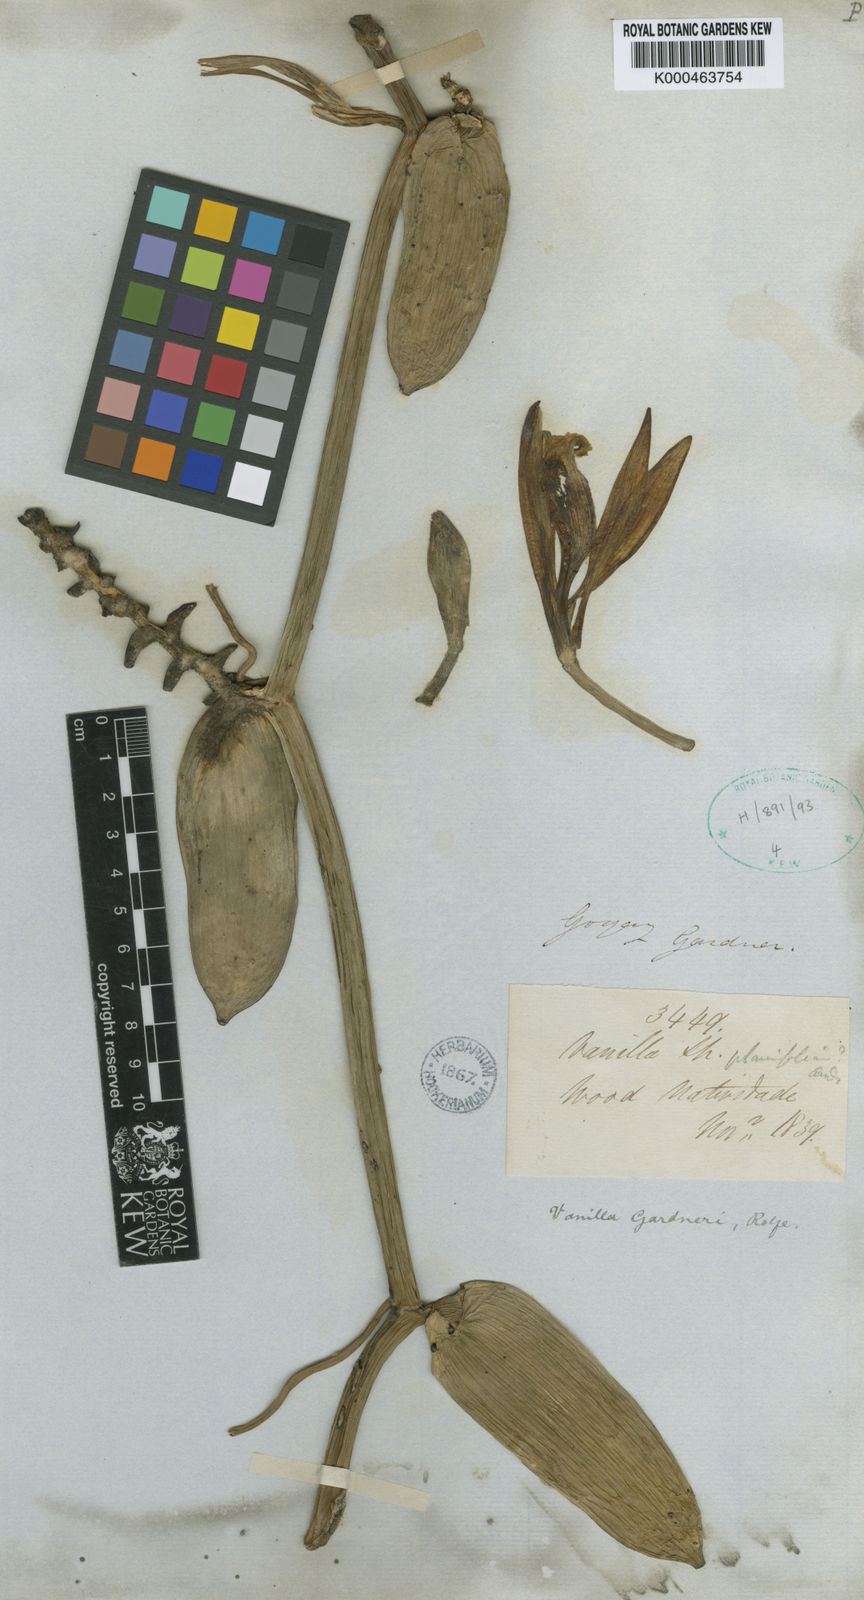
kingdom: Plantae
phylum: Tracheophyta
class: Liliopsida
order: Asparagales
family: Orchidaceae
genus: Vanilla
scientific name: Vanilla phaeantha
